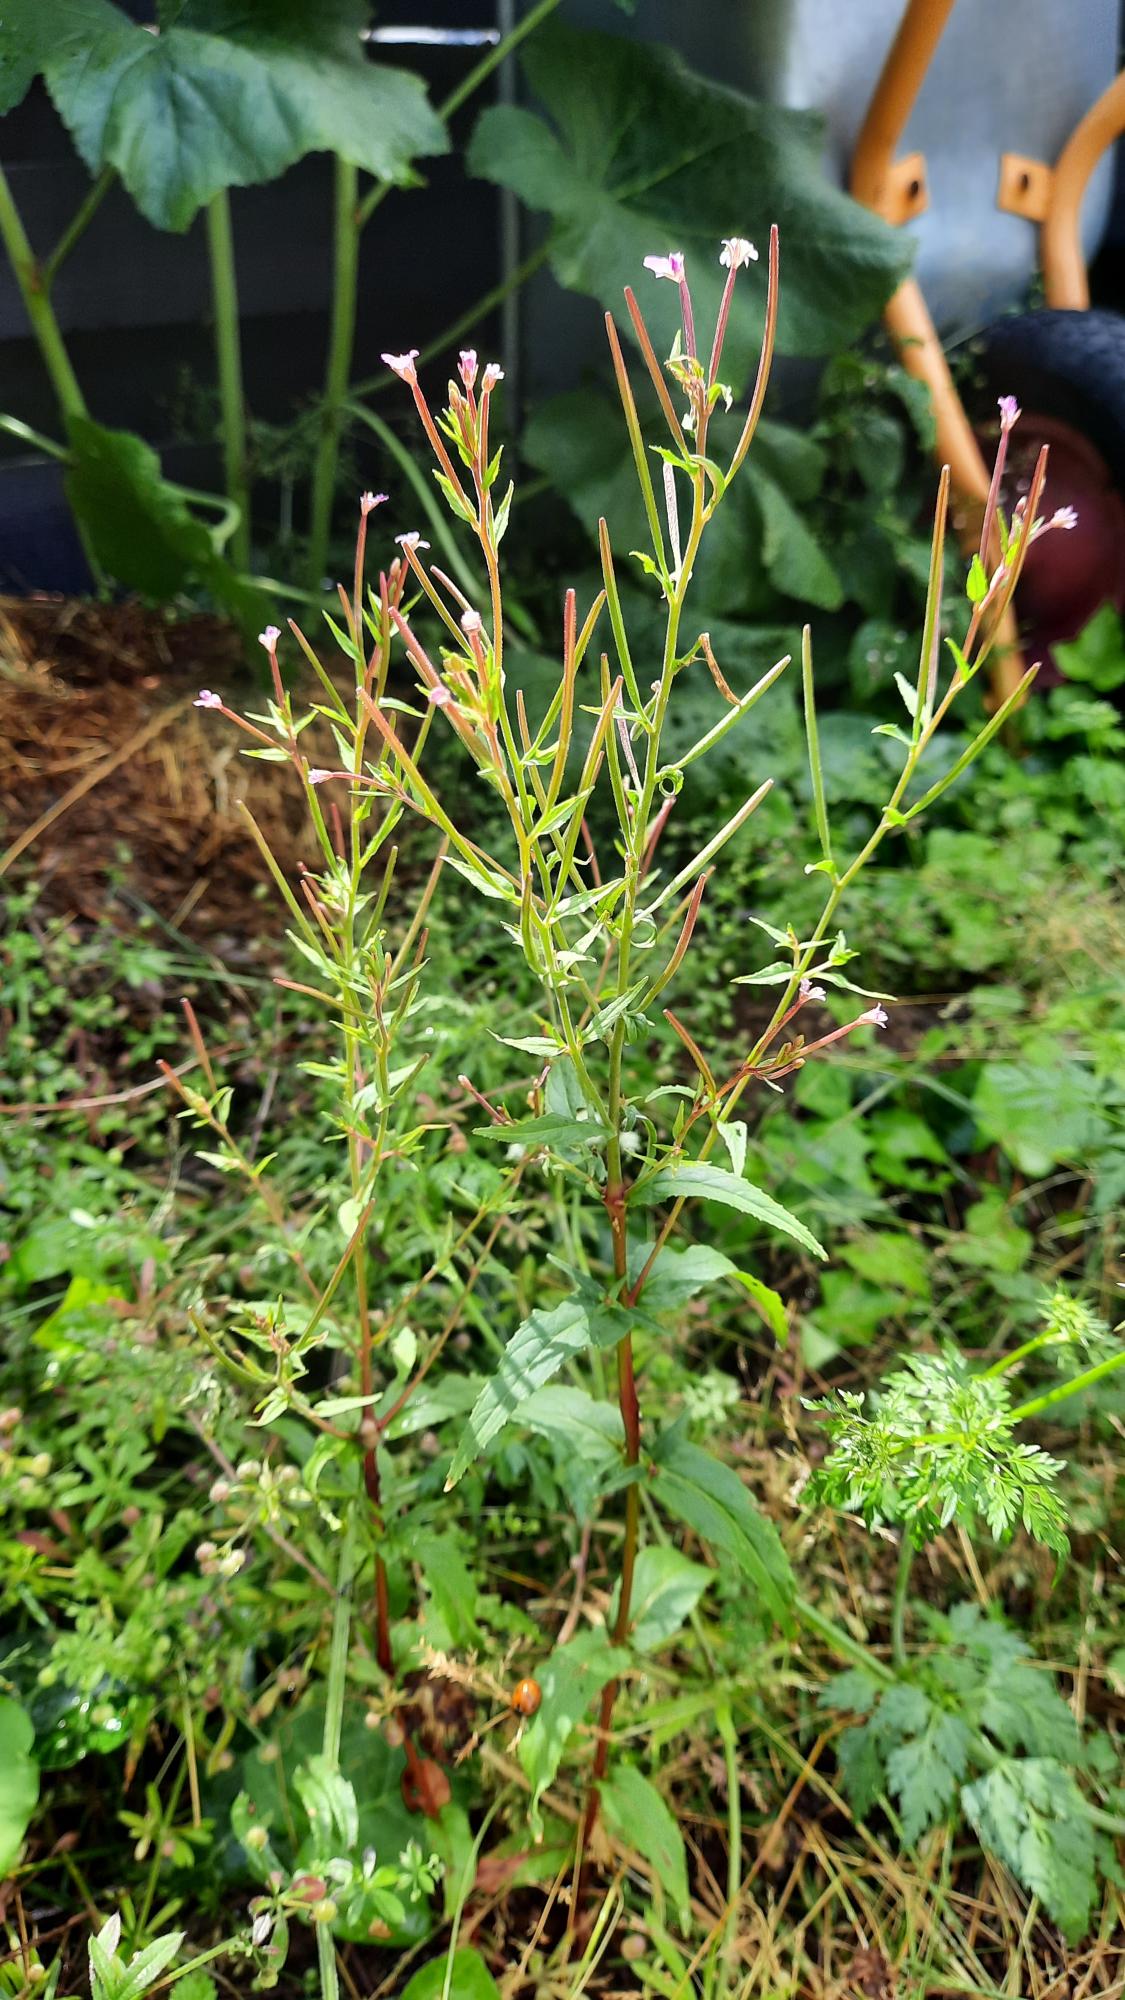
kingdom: Plantae
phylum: Tracheophyta
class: Magnoliopsida
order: Myrtales
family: Onagraceae
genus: Epilobium
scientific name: Epilobium ciliatum
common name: Kirtlet dueurt
